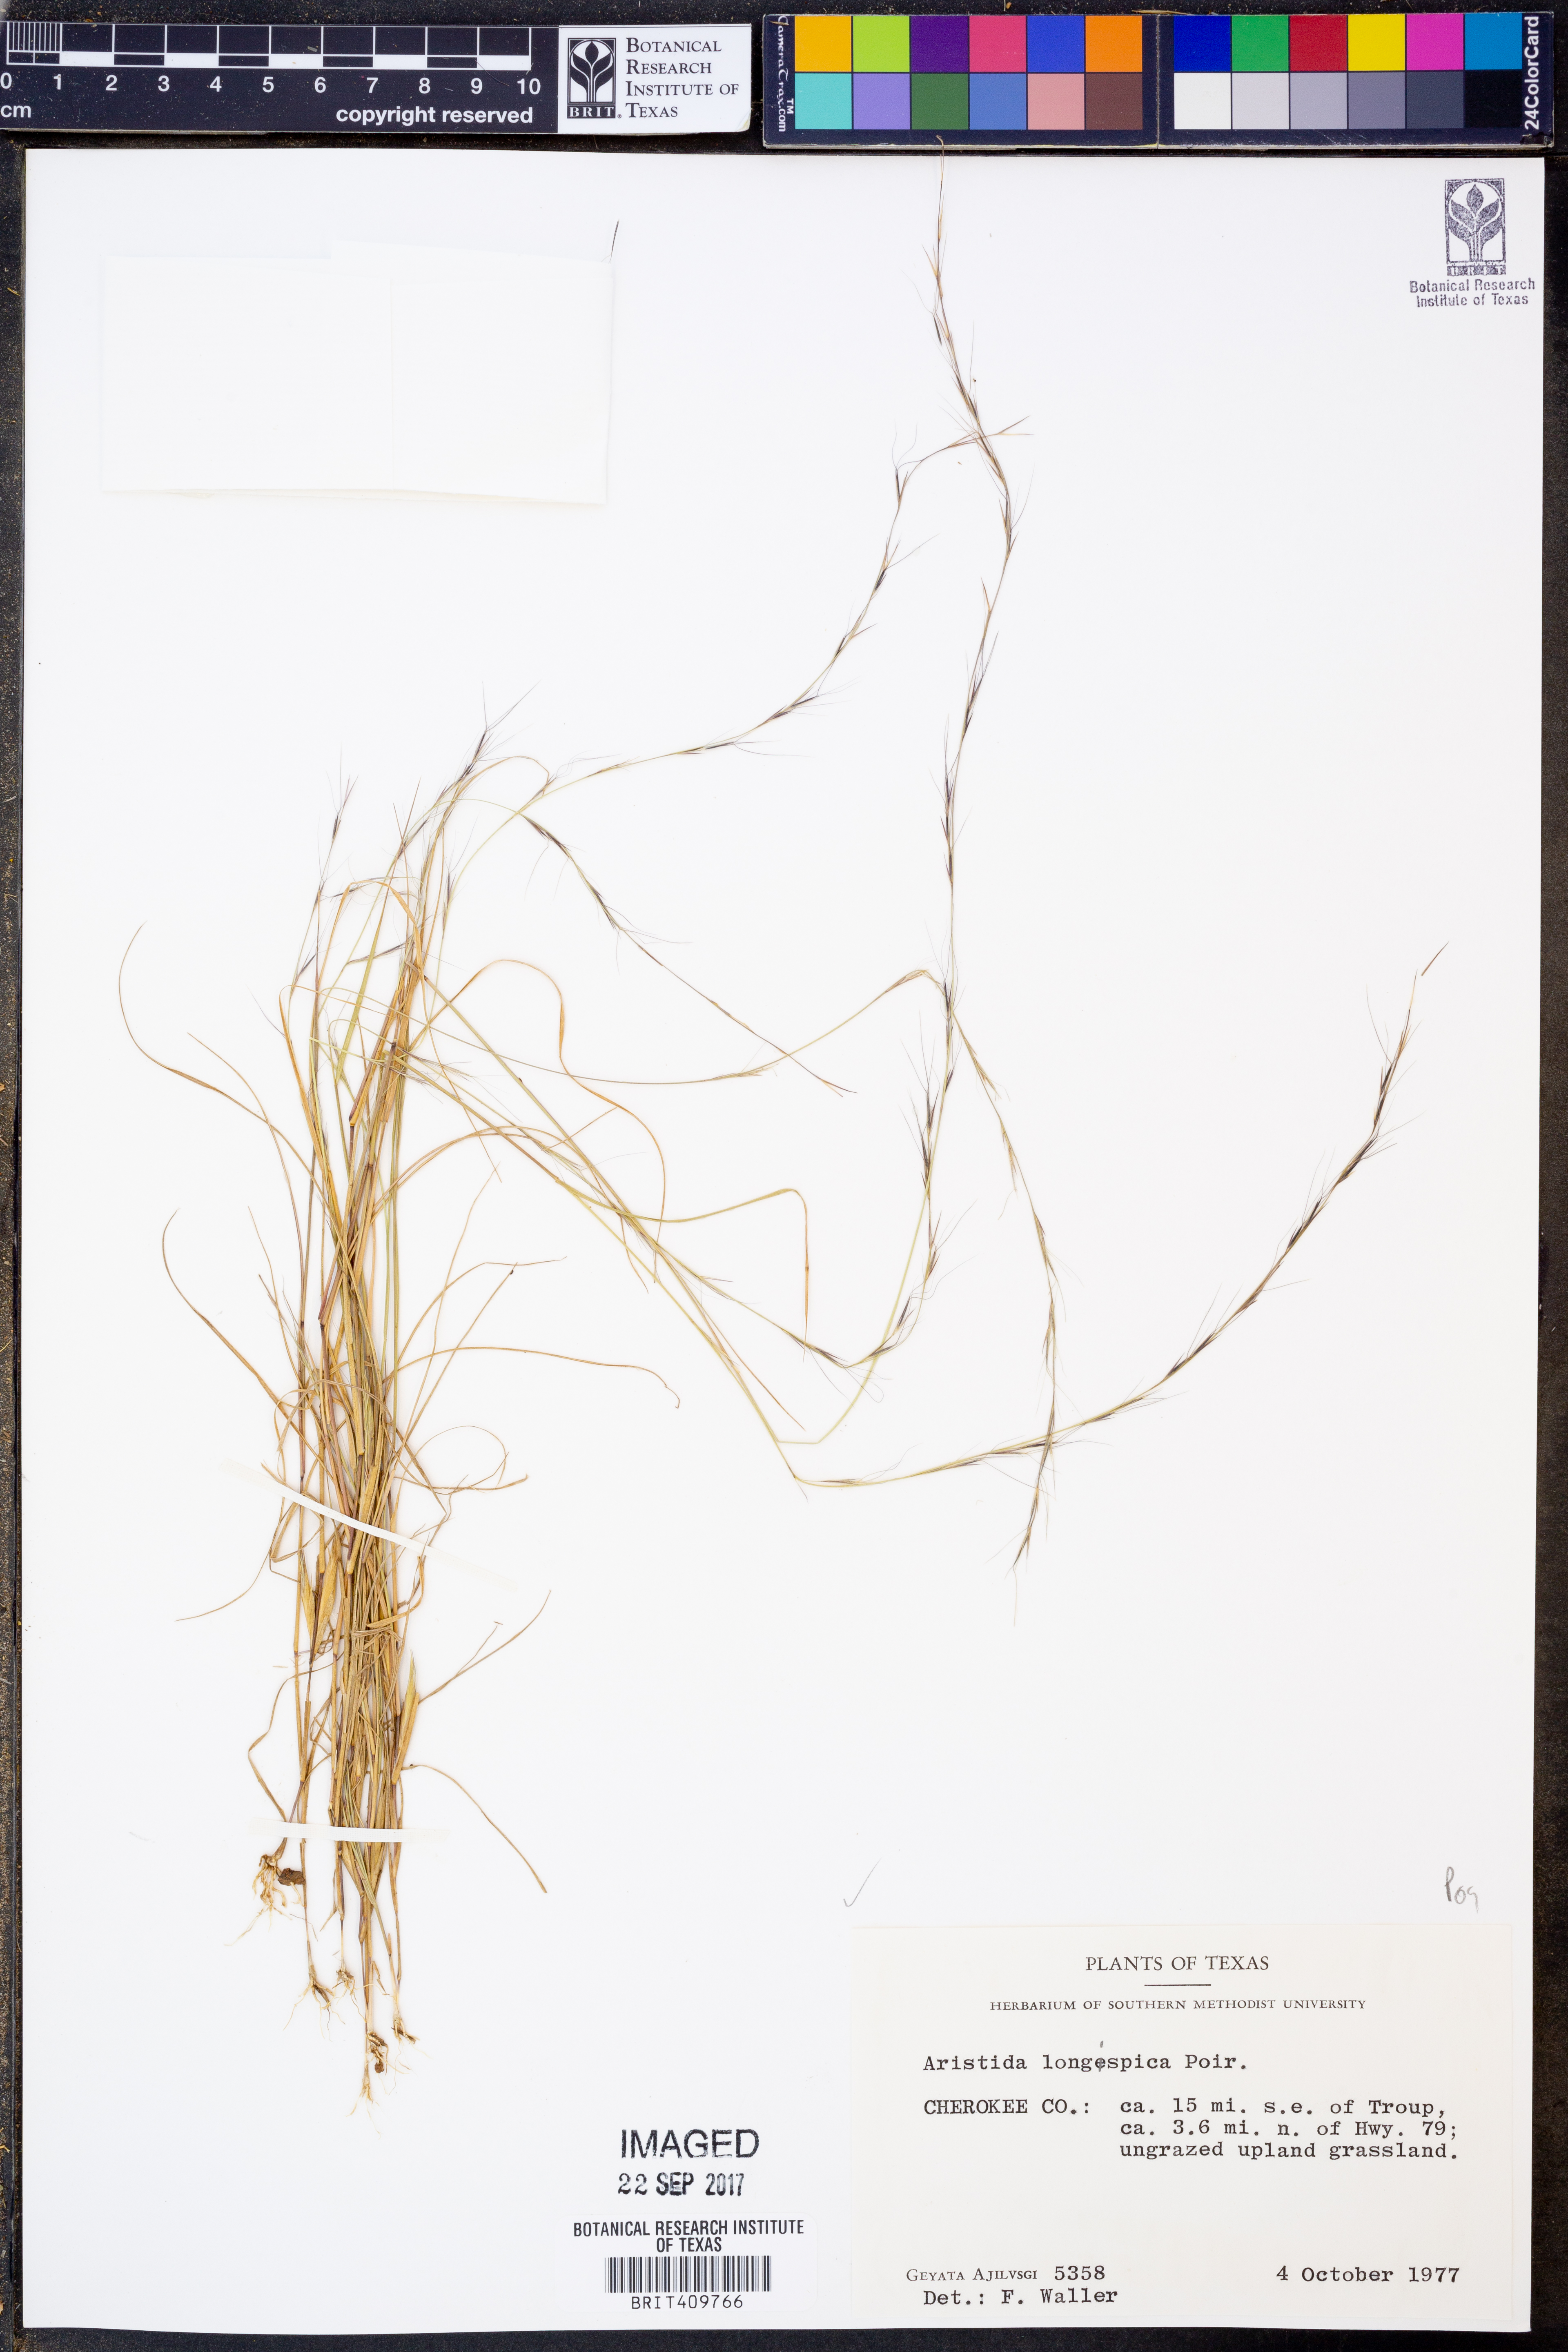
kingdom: Plantae
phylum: Tracheophyta
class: Liliopsida
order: Poales
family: Poaceae
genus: Aristida
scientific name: Aristida longespica
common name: Long-spiked triple-awned grass
